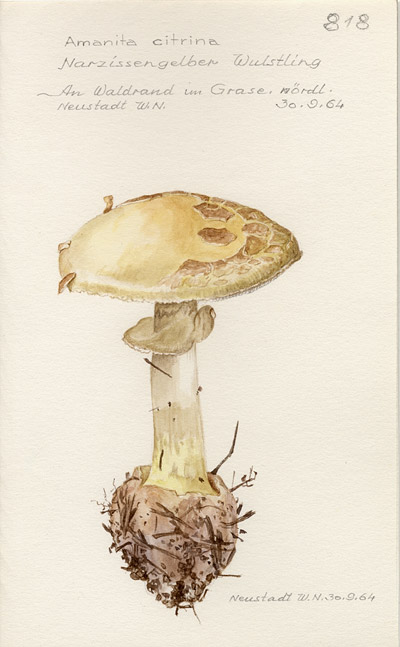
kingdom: Fungi
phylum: Basidiomycota
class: Agaricomycetes
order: Agaricales
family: Amanitaceae
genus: Amanita
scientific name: Amanita citrina
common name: False death-cap
